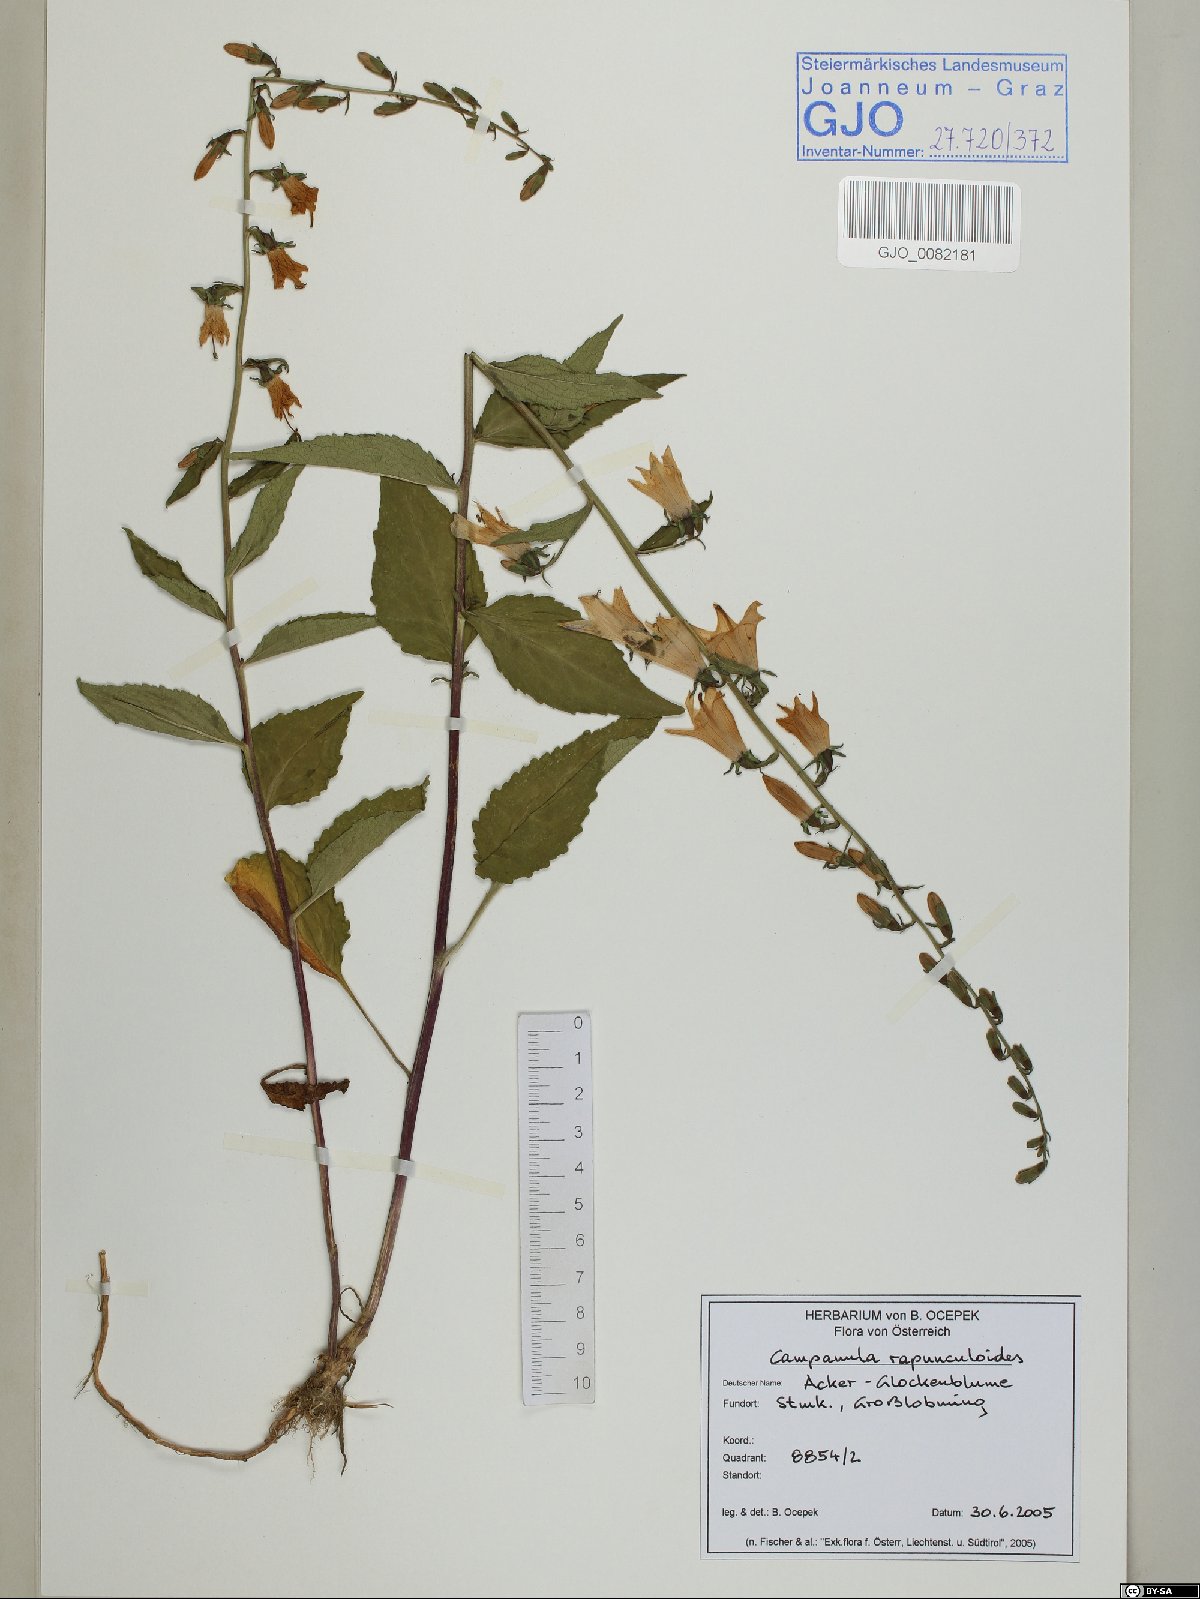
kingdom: Plantae
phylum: Tracheophyta
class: Magnoliopsida
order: Asterales
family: Campanulaceae
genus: Campanula
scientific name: Campanula rapunculoides
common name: Creeping bellflower
